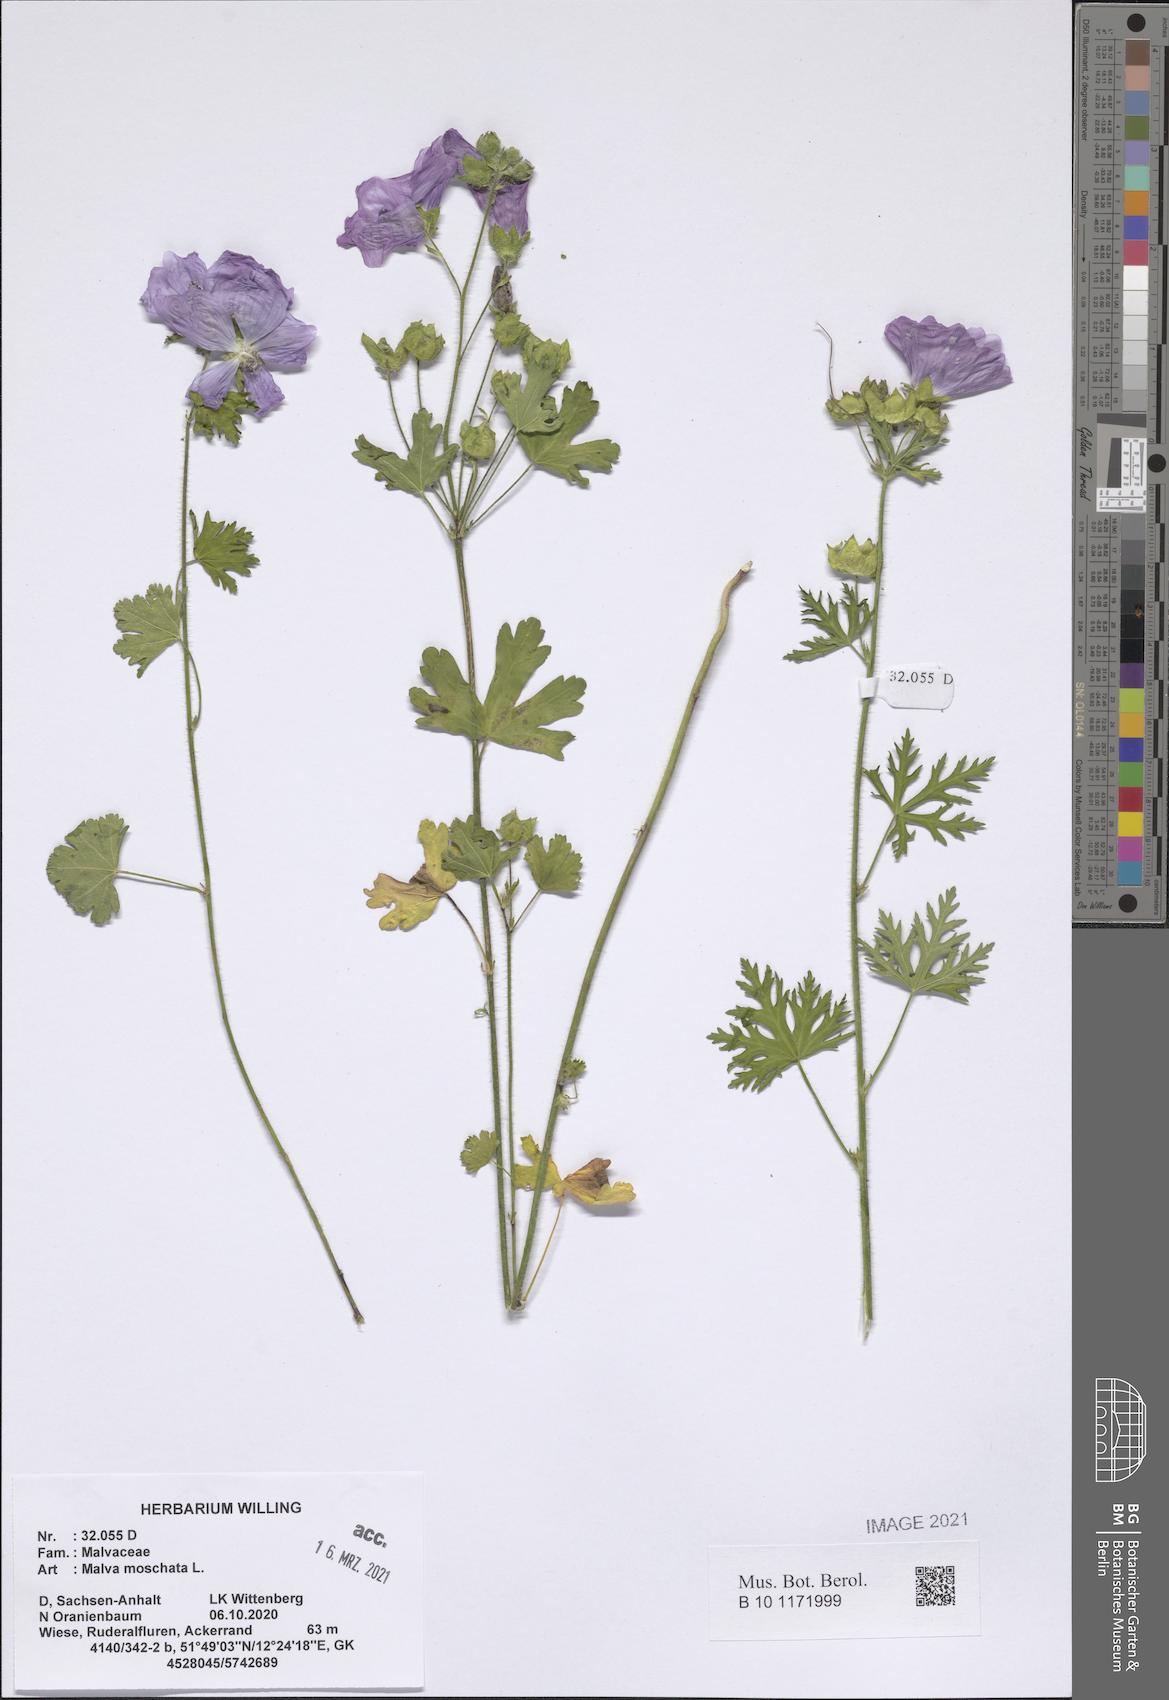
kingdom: Plantae
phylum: Tracheophyta
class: Magnoliopsida
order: Malvales
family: Malvaceae
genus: Malva
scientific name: Malva moschata
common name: Musk mallow
